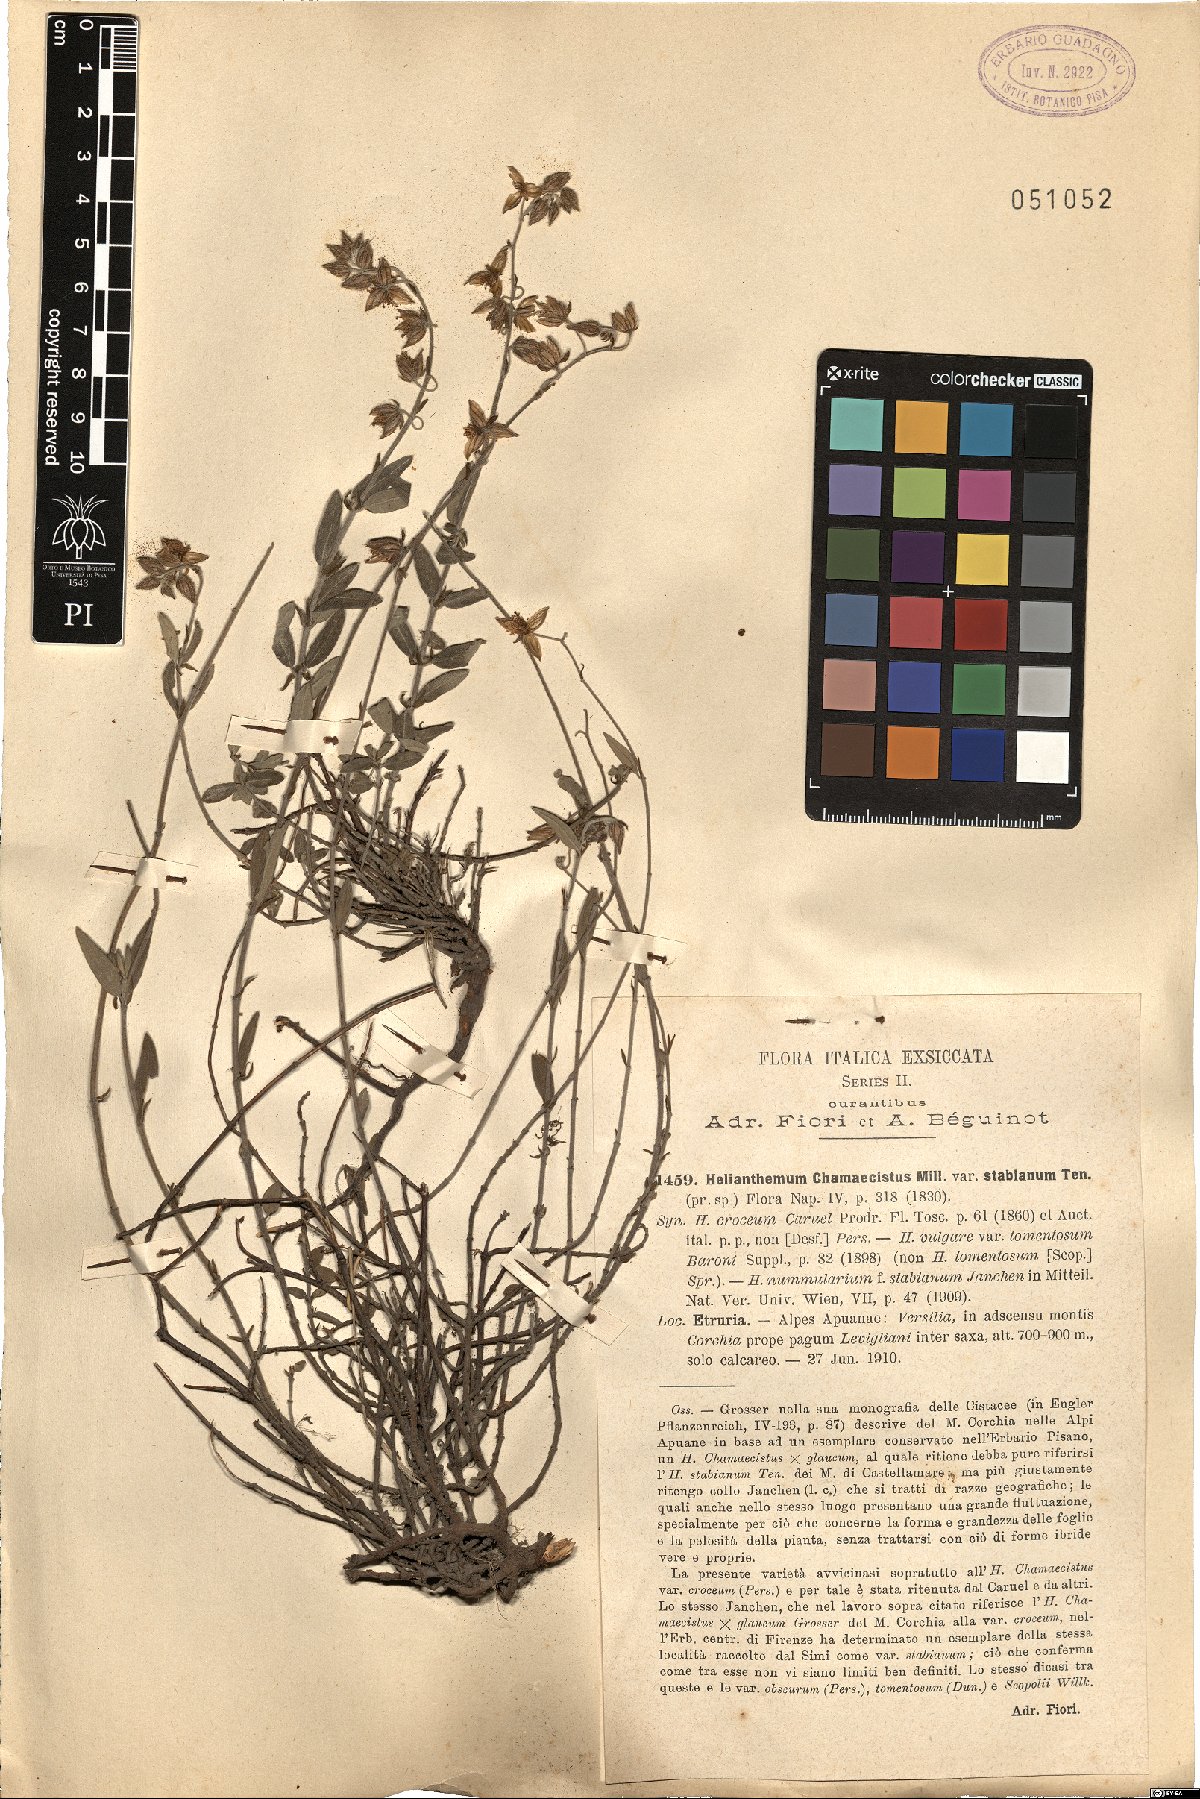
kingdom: Plantae
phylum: Tracheophyta
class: Magnoliopsida
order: Malvales
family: Cistaceae
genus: Helianthemum
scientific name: Helianthemum nummularium
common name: Common rock-rose
